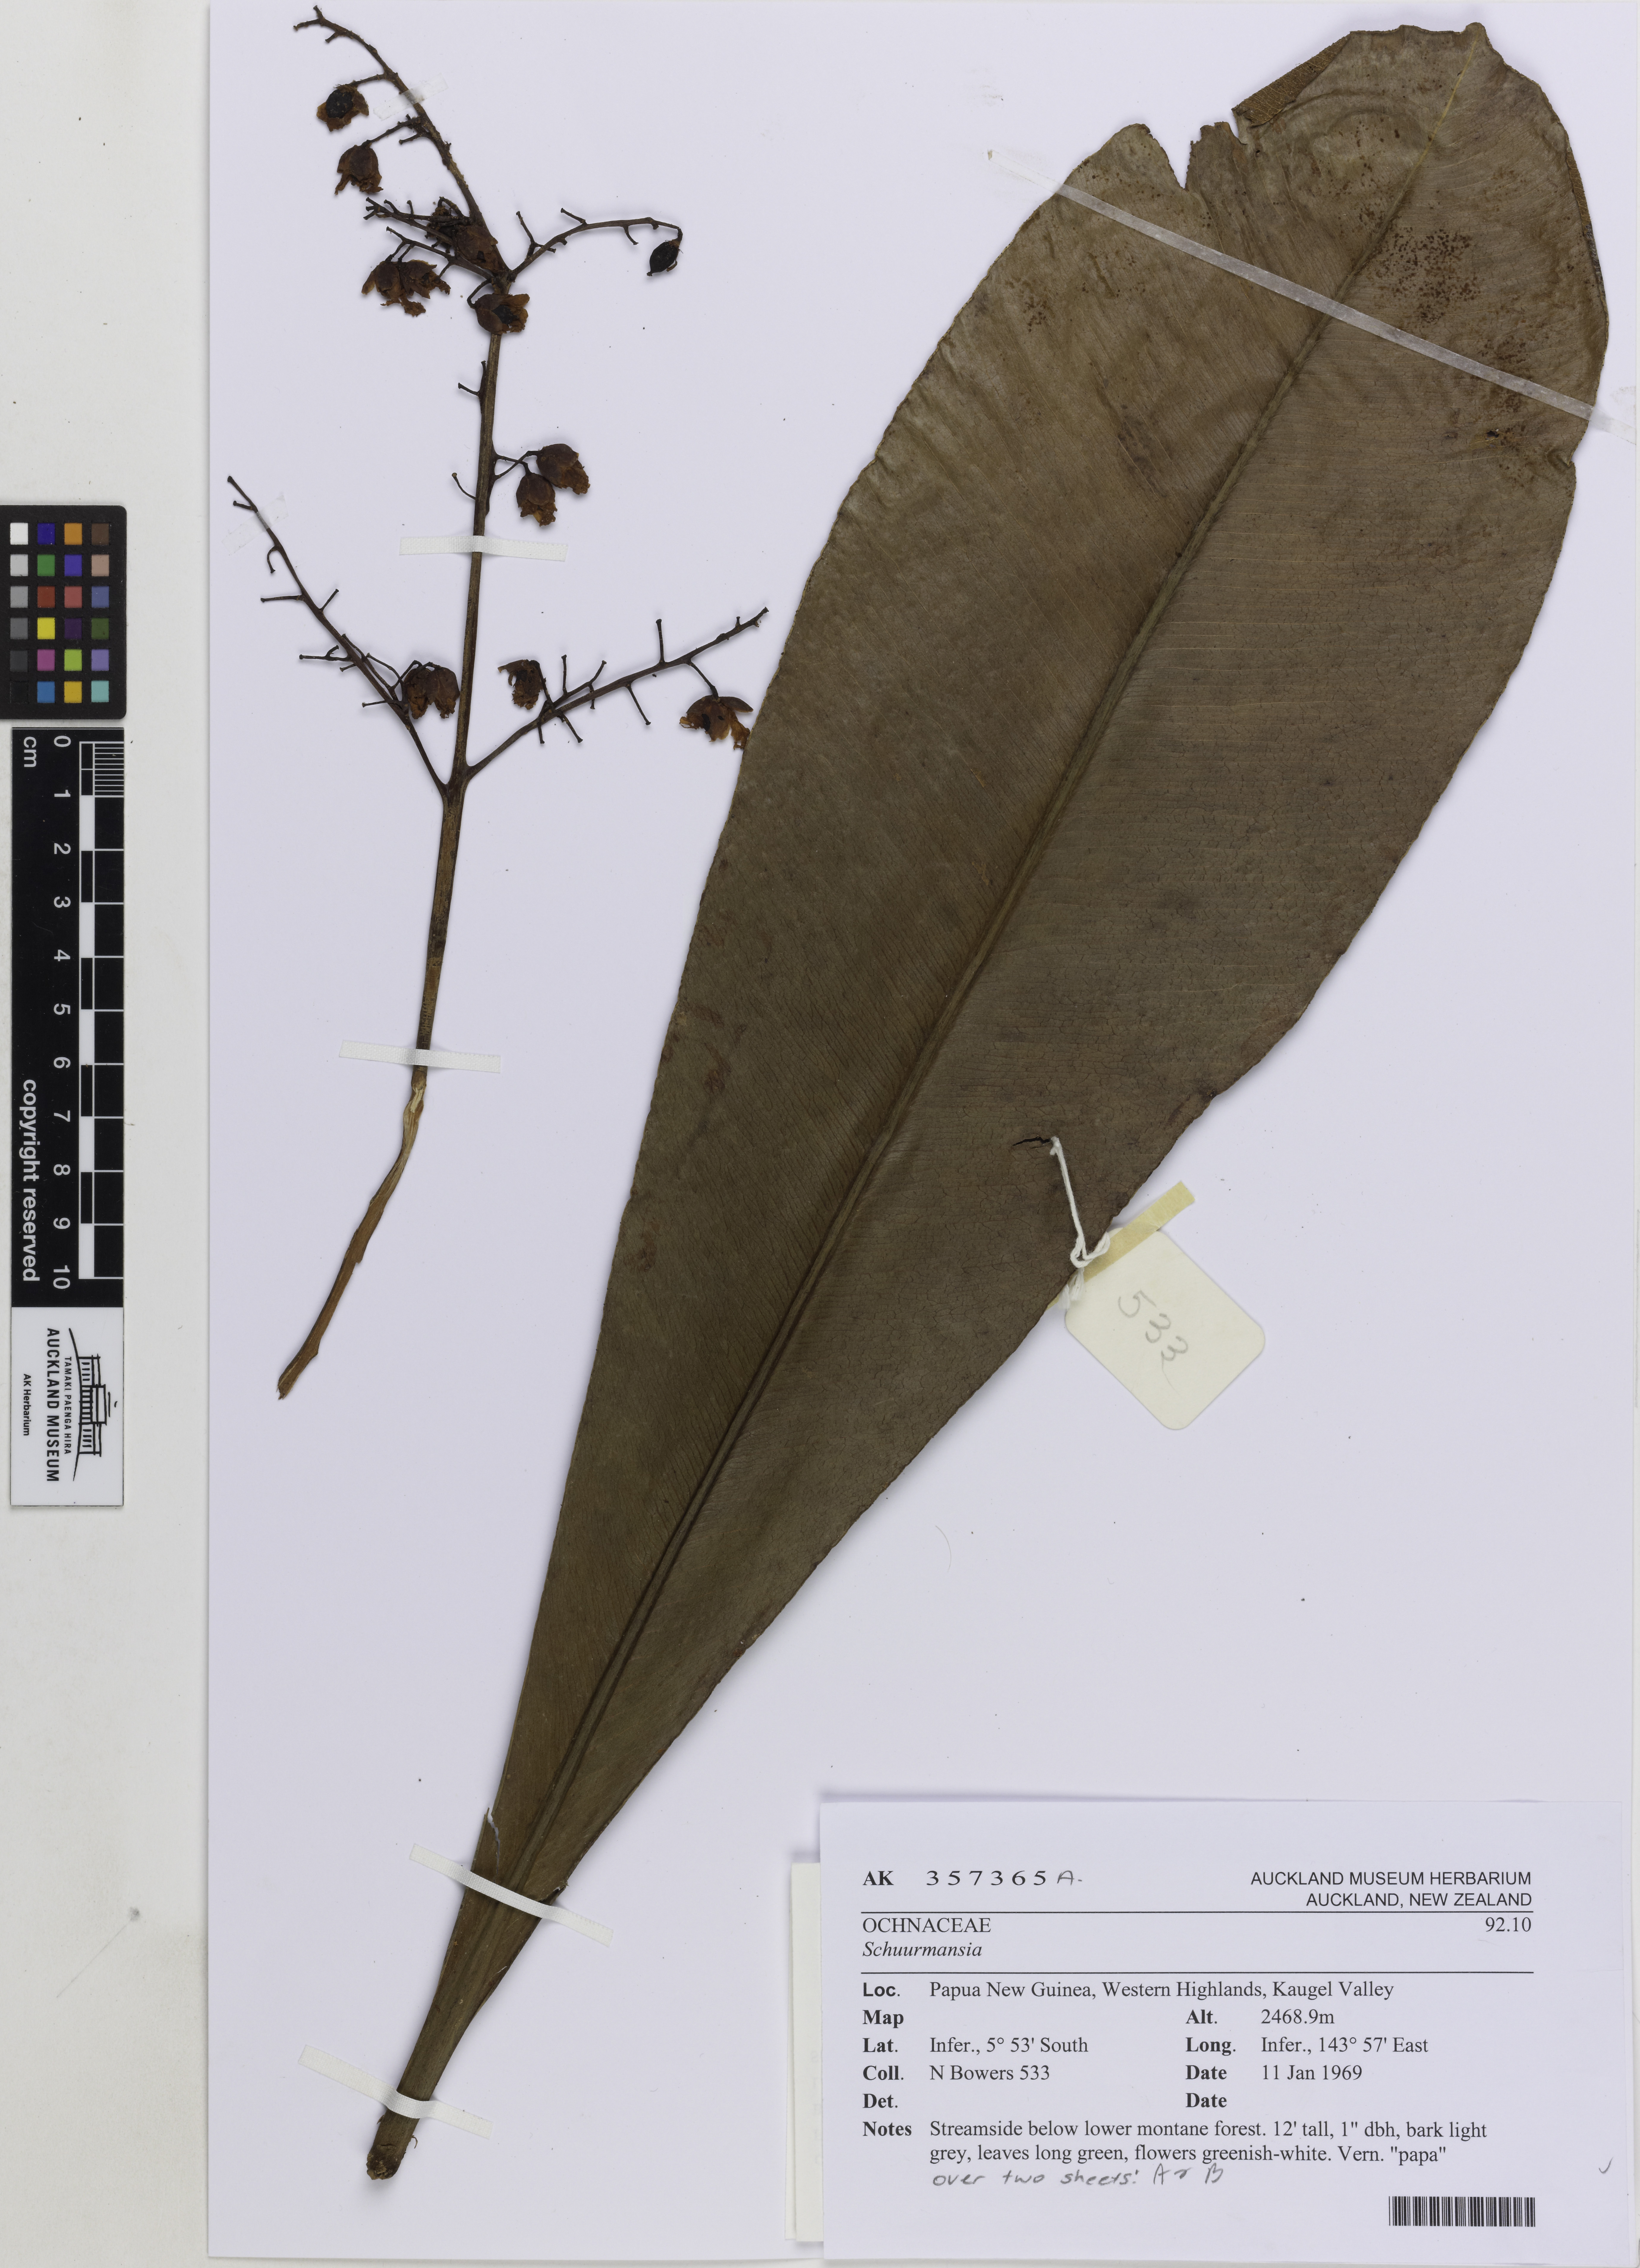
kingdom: Plantae
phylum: Tracheophyta
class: Magnoliopsida
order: Malpighiales
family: Ochnaceae
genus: Schuurmansia
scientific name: Schuurmansia
